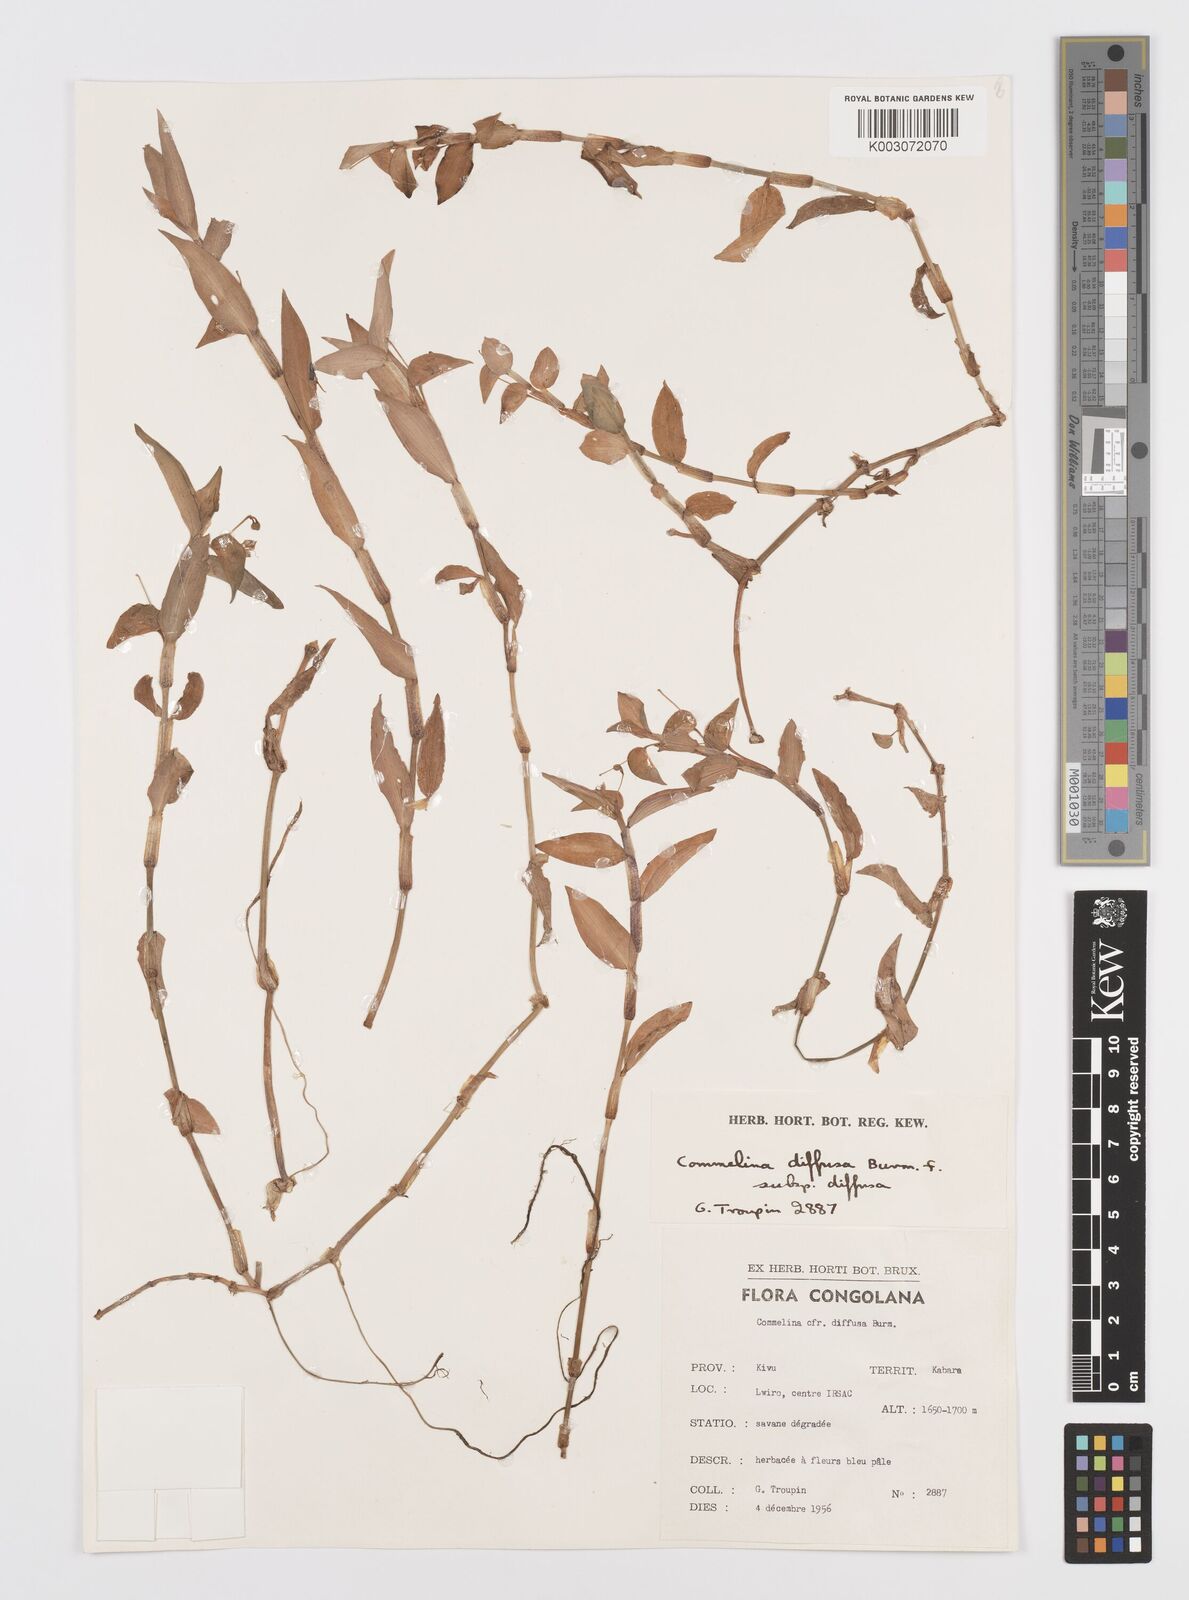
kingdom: Plantae
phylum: Tracheophyta
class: Liliopsida
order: Commelinales
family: Commelinaceae
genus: Commelina
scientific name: Commelina diffusa
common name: Climbing dayflower
